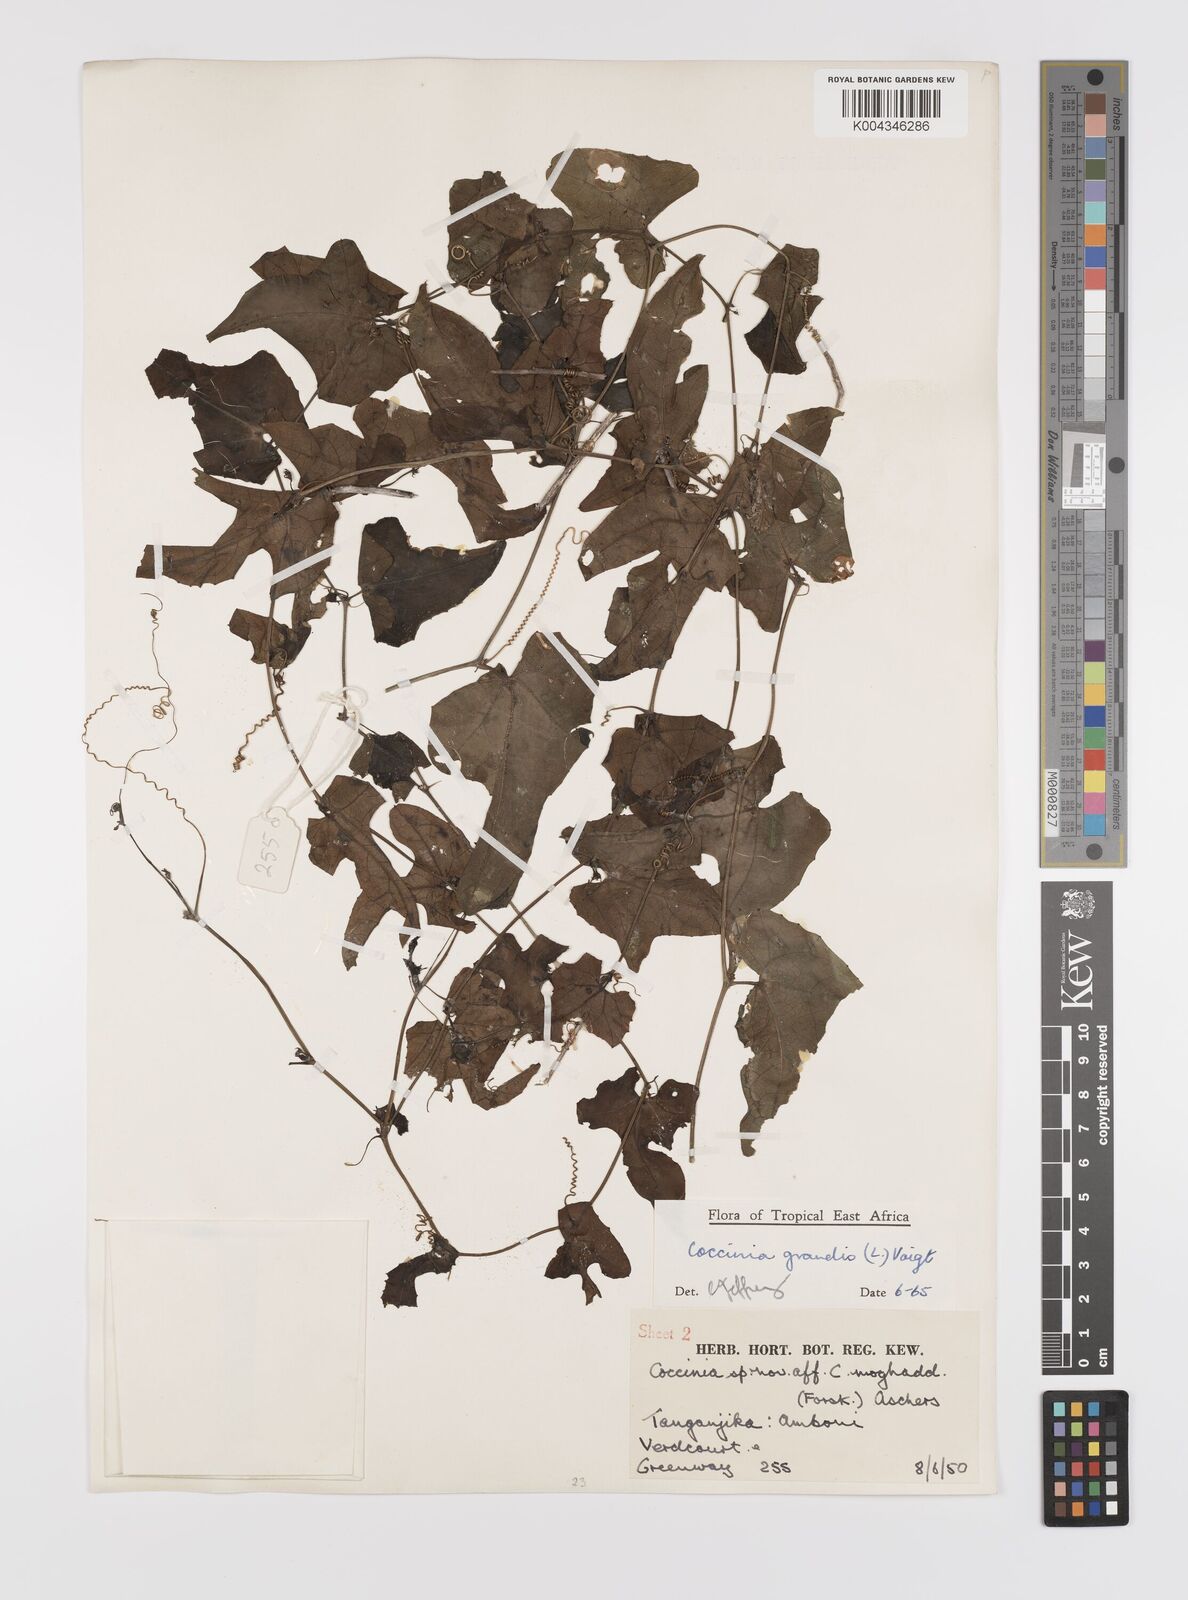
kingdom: Plantae
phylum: Tracheophyta
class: Magnoliopsida
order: Cucurbitales
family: Cucurbitaceae
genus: Coccinia
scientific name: Coccinia grandis
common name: Ivy gourd
